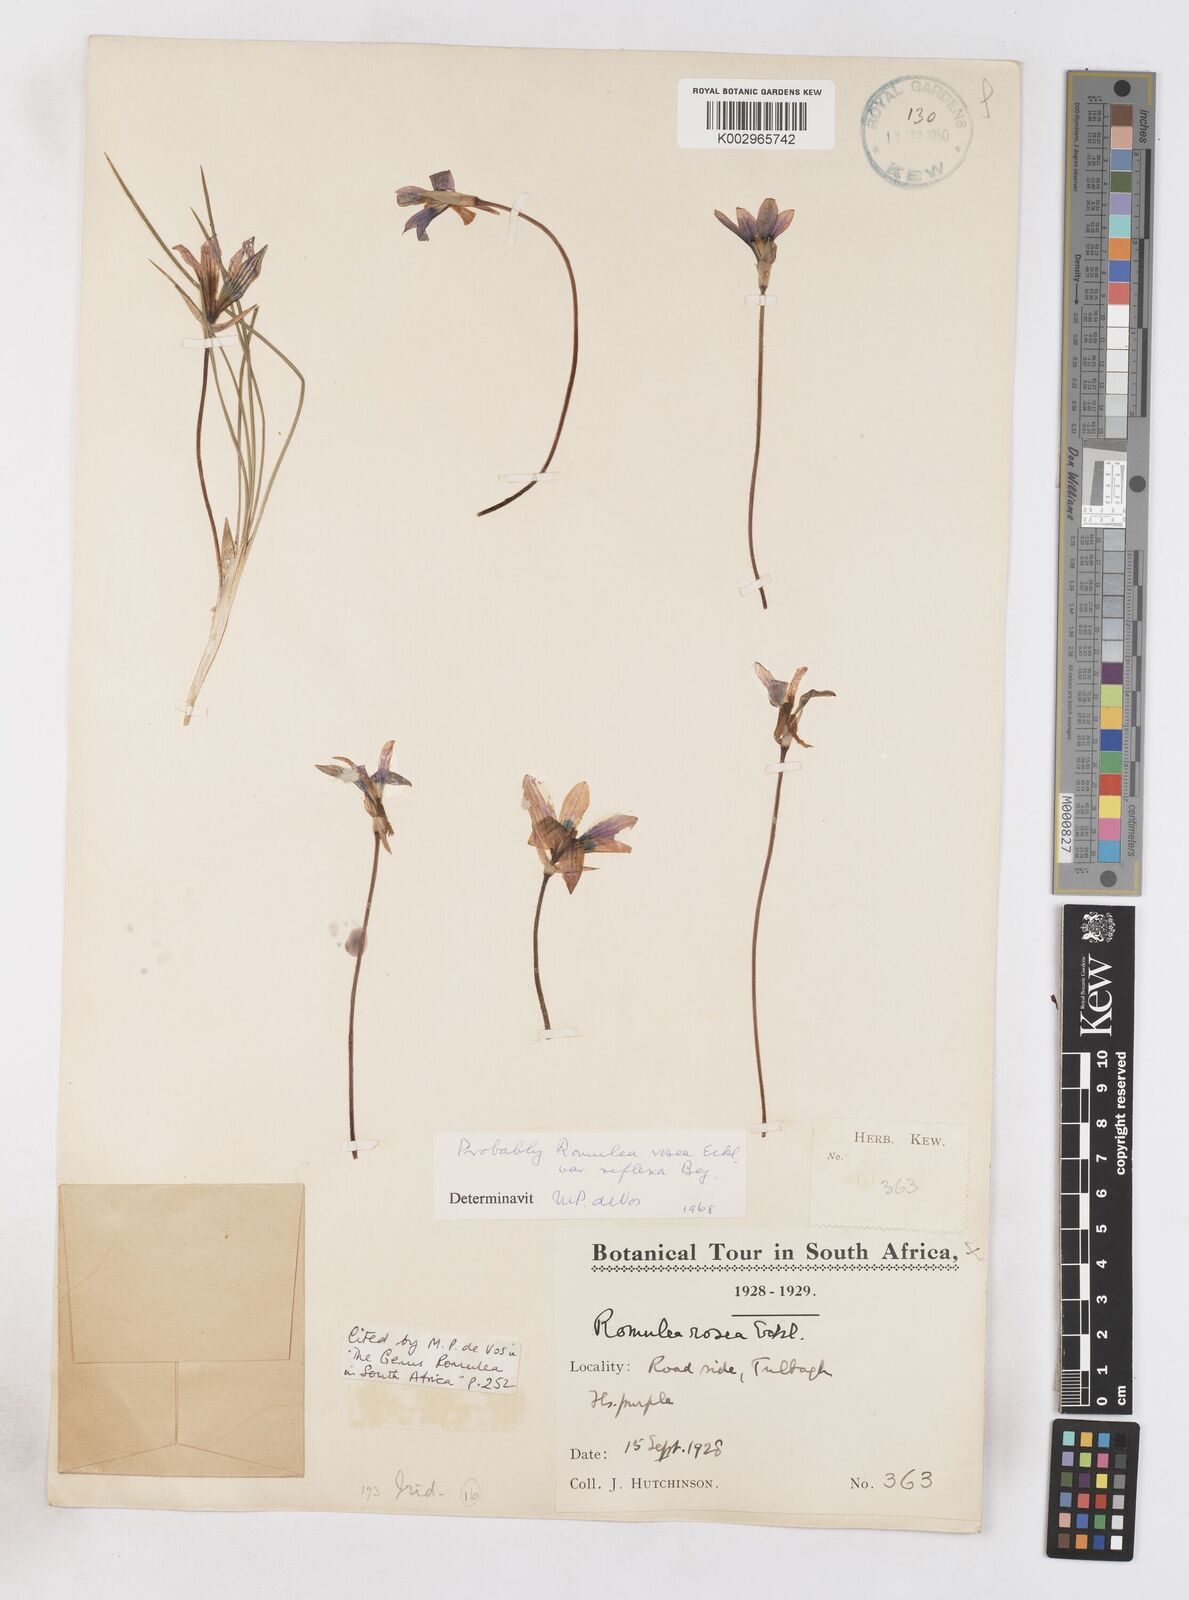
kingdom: Plantae
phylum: Tracheophyta
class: Liliopsida
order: Asparagales
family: Iridaceae
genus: Romulea
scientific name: Romulea rosea
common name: Oniongrass
